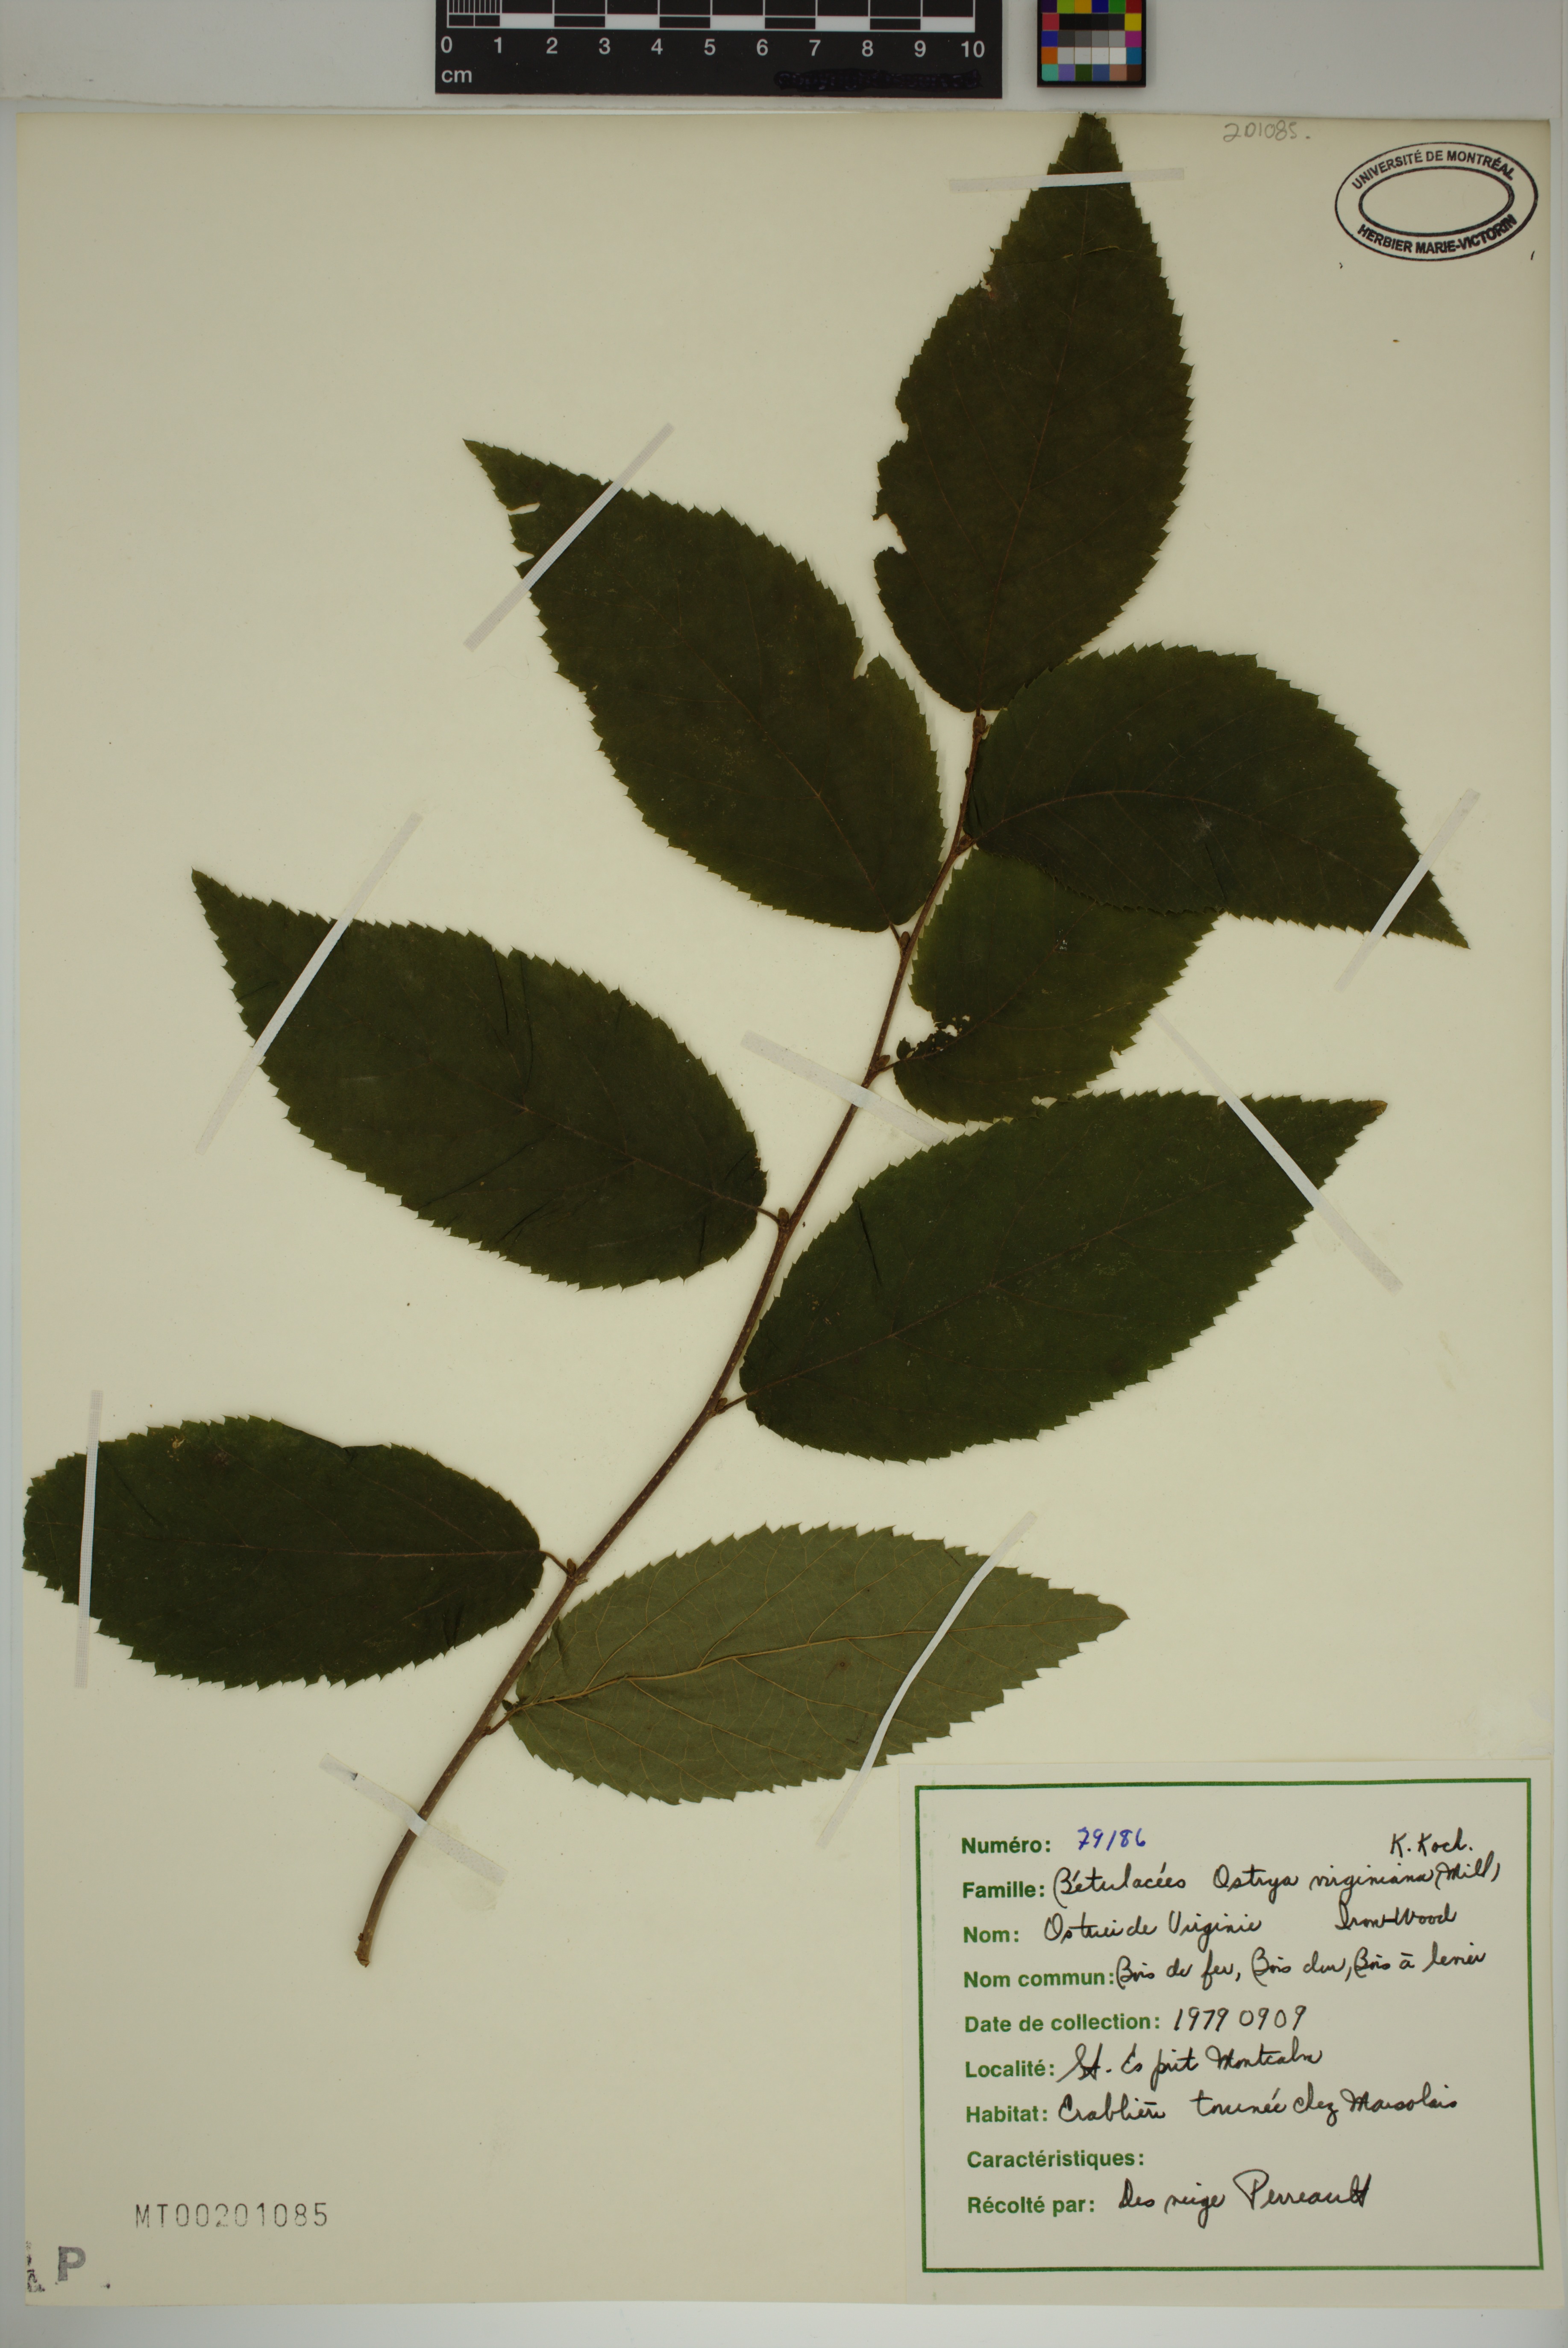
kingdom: Plantae
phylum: Tracheophyta
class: Magnoliopsida
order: Fagales
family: Betulaceae
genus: Ostrya
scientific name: Ostrya virginiana
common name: Ironwood
